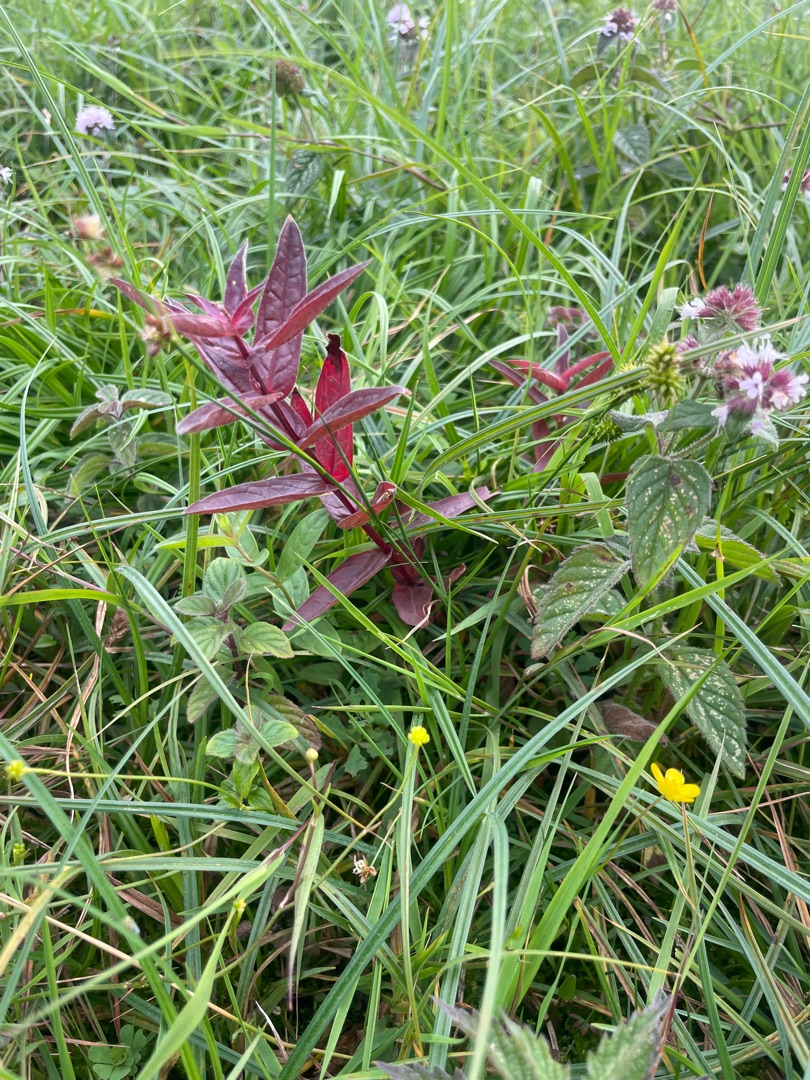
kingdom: Plantae
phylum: Tracheophyta
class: Magnoliopsida
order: Myrtales
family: Lythraceae
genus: Lythrum
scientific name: Lythrum salicaria
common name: Kattehale
